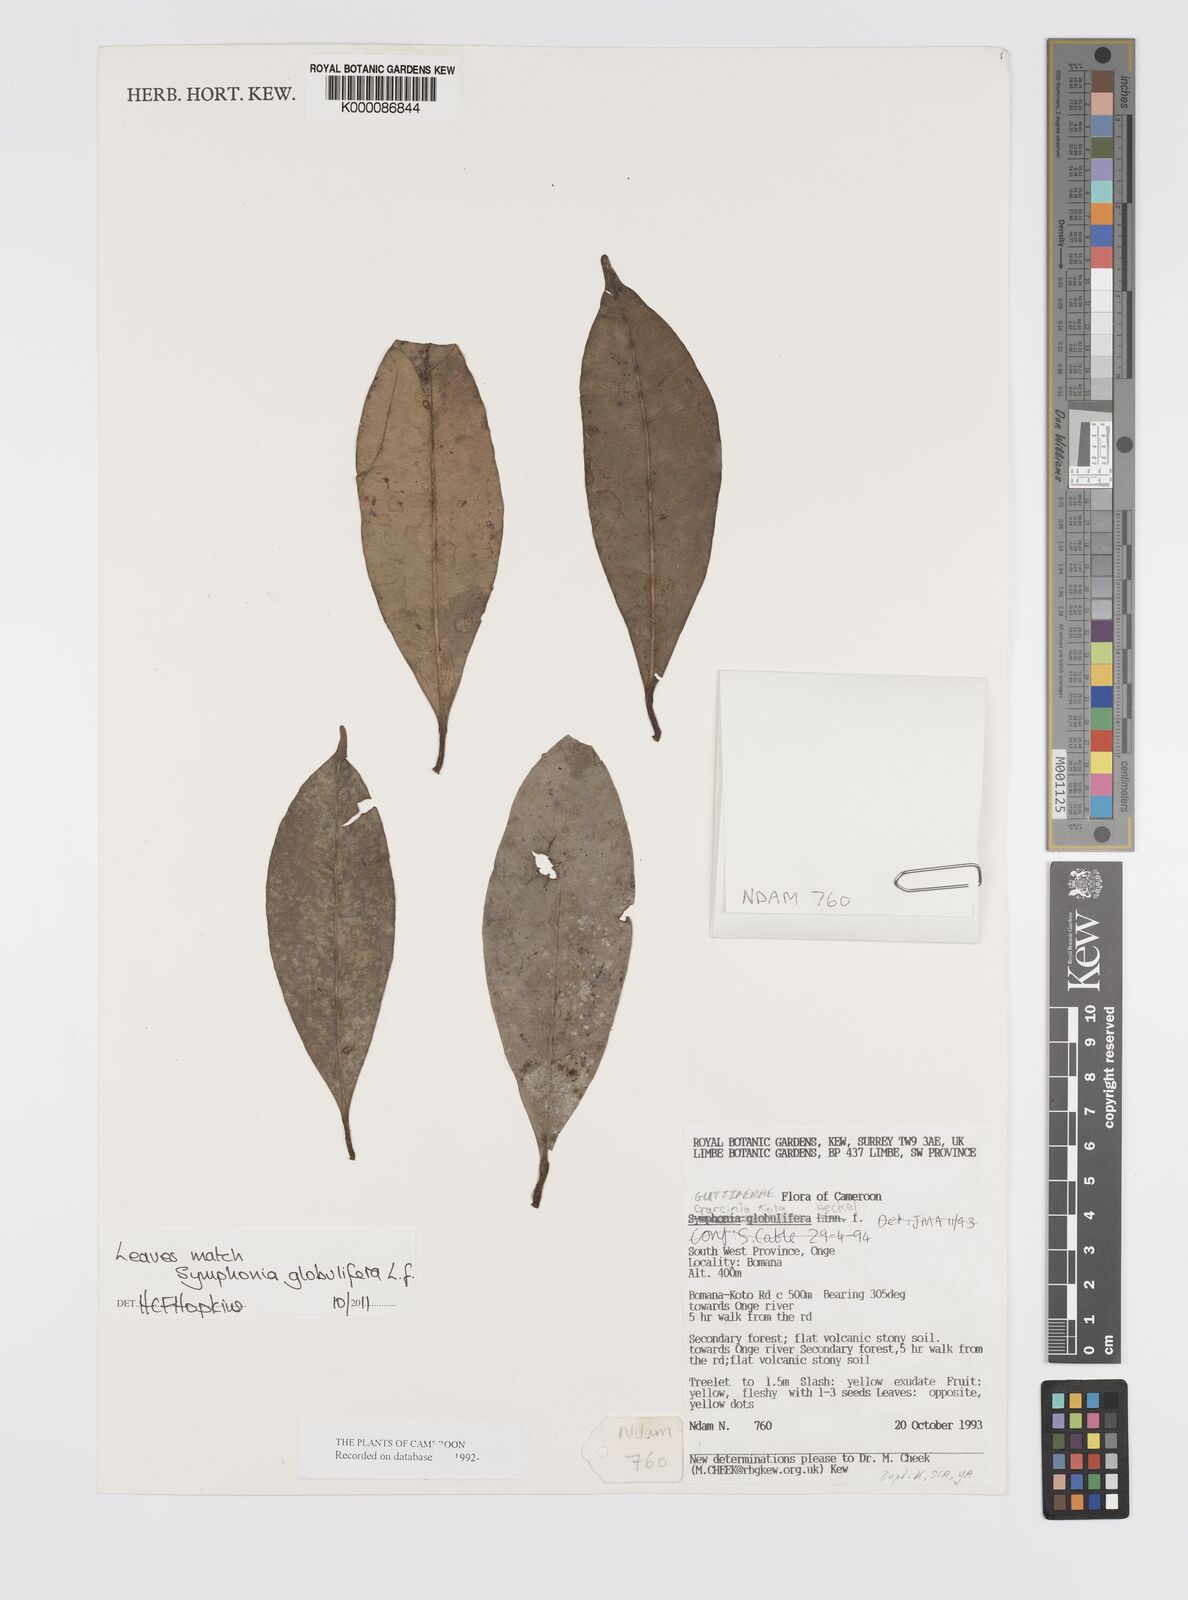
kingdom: Plantae
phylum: Tracheophyta
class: Magnoliopsida
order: Malpighiales
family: Clusiaceae
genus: Garcinia
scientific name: Garcinia kola
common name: Bitter-kola
